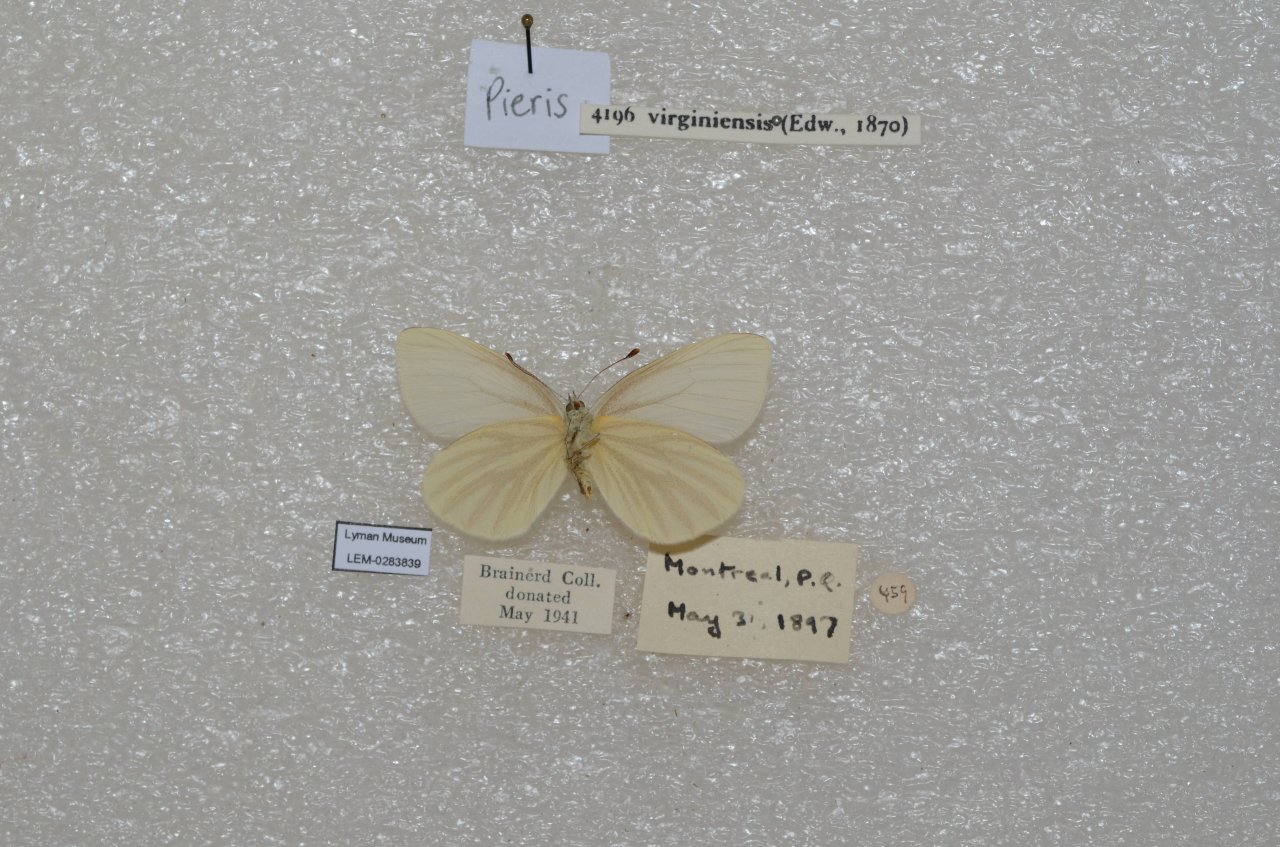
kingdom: Animalia
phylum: Arthropoda
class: Insecta
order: Lepidoptera
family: Pieridae
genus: Pieris
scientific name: Pieris virginiensis
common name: West Virginia White
